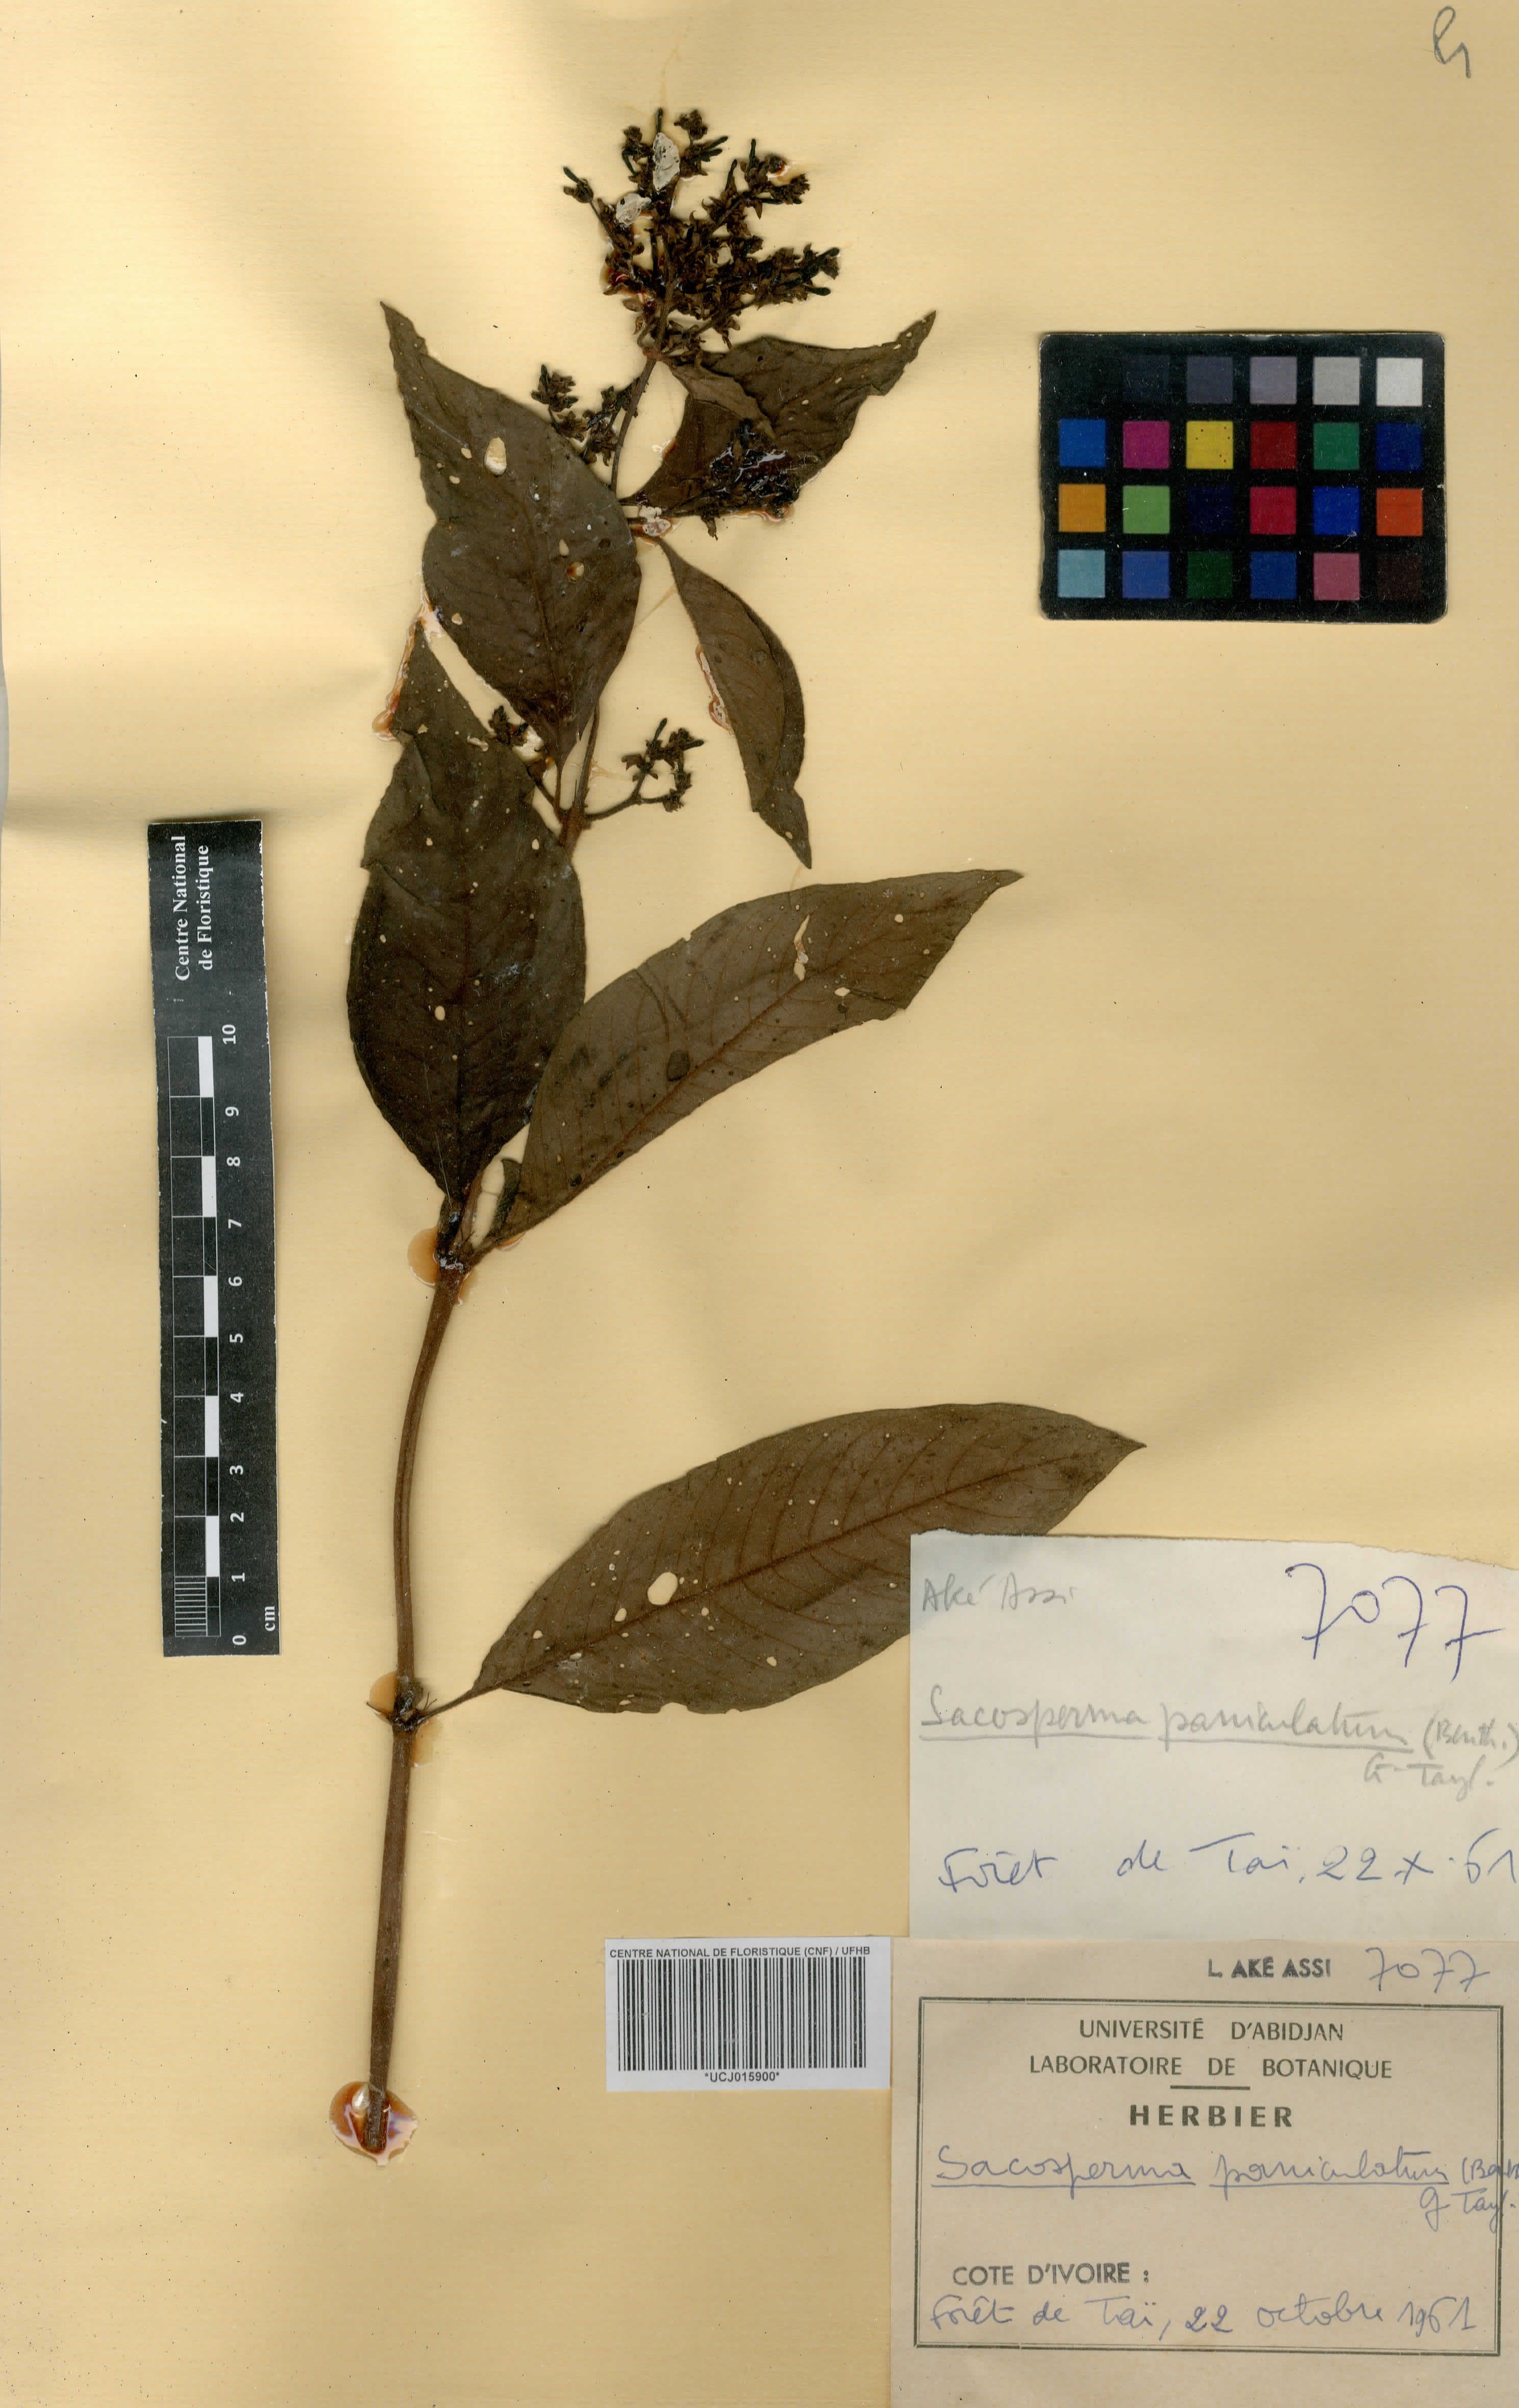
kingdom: Plantae
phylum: Tracheophyta
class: Magnoliopsida
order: Gentianales
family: Rubiaceae
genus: Sacosperma
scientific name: Sacosperma paniculatum
